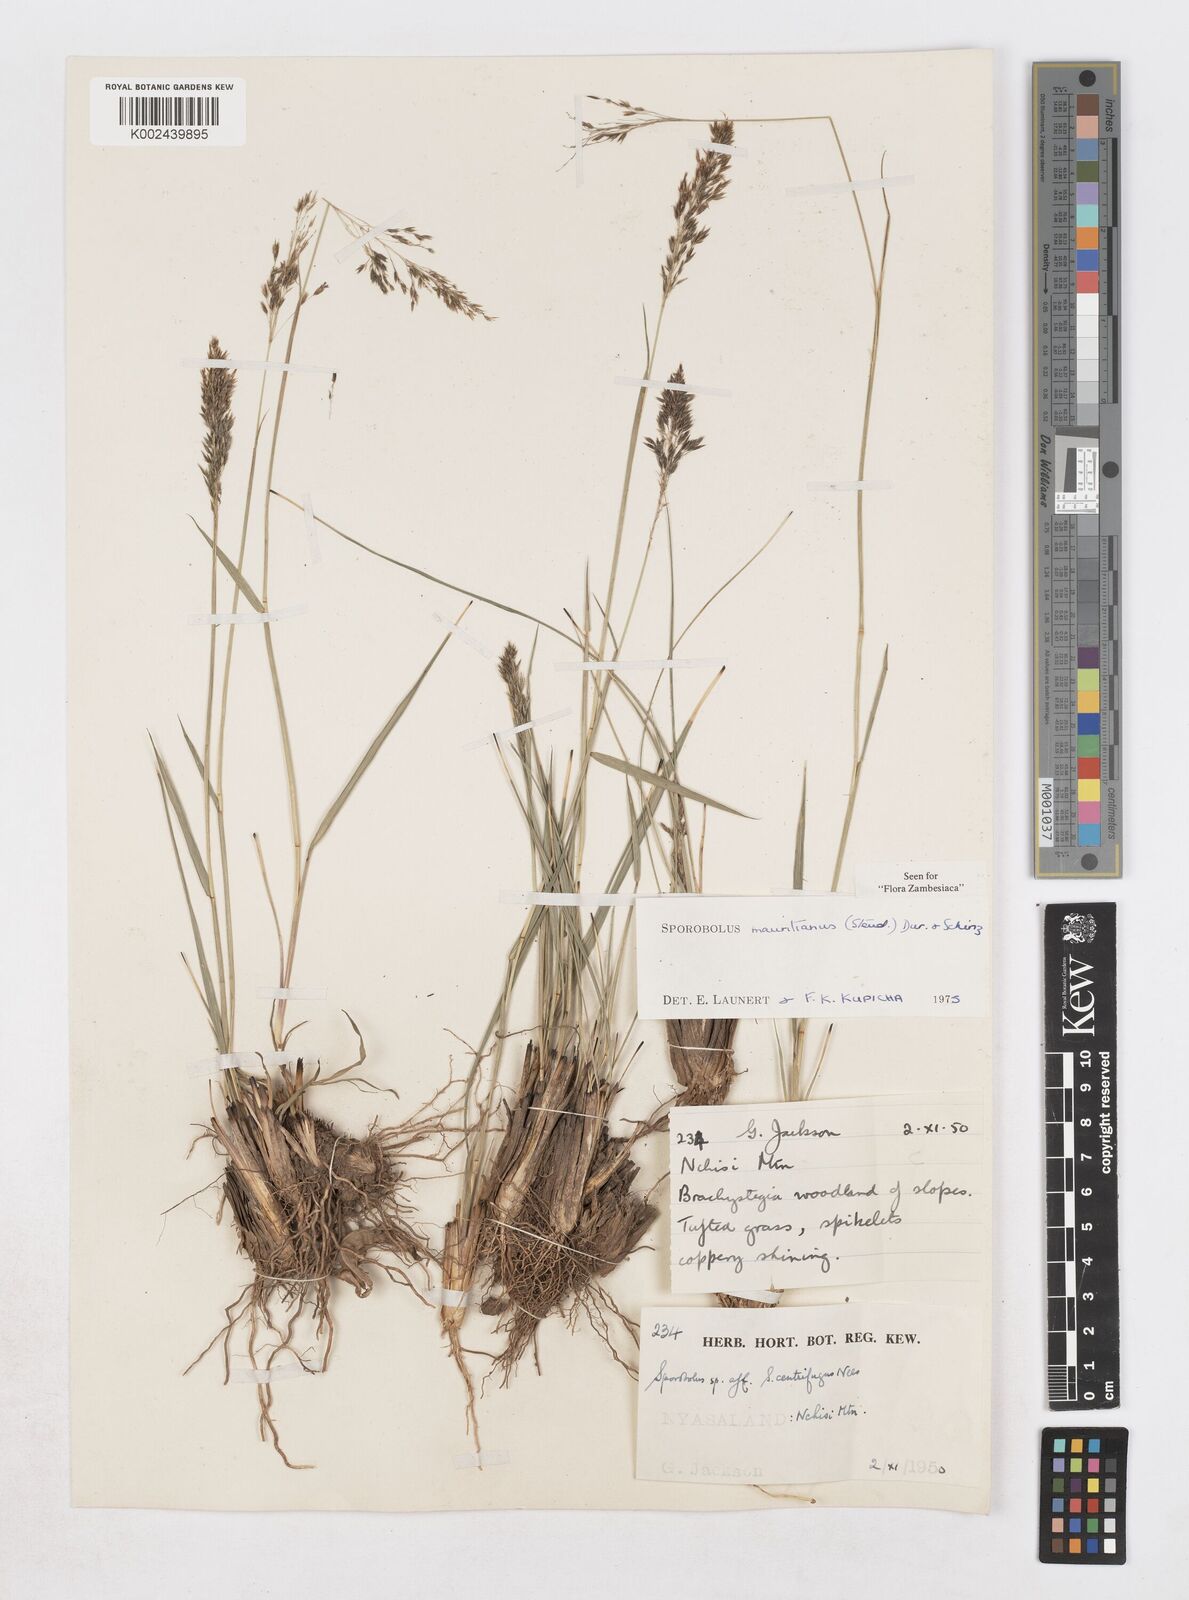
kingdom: Plantae
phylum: Tracheophyta
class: Liliopsida
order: Poales
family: Poaceae
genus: Sporobolus
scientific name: Sporobolus subulatus
